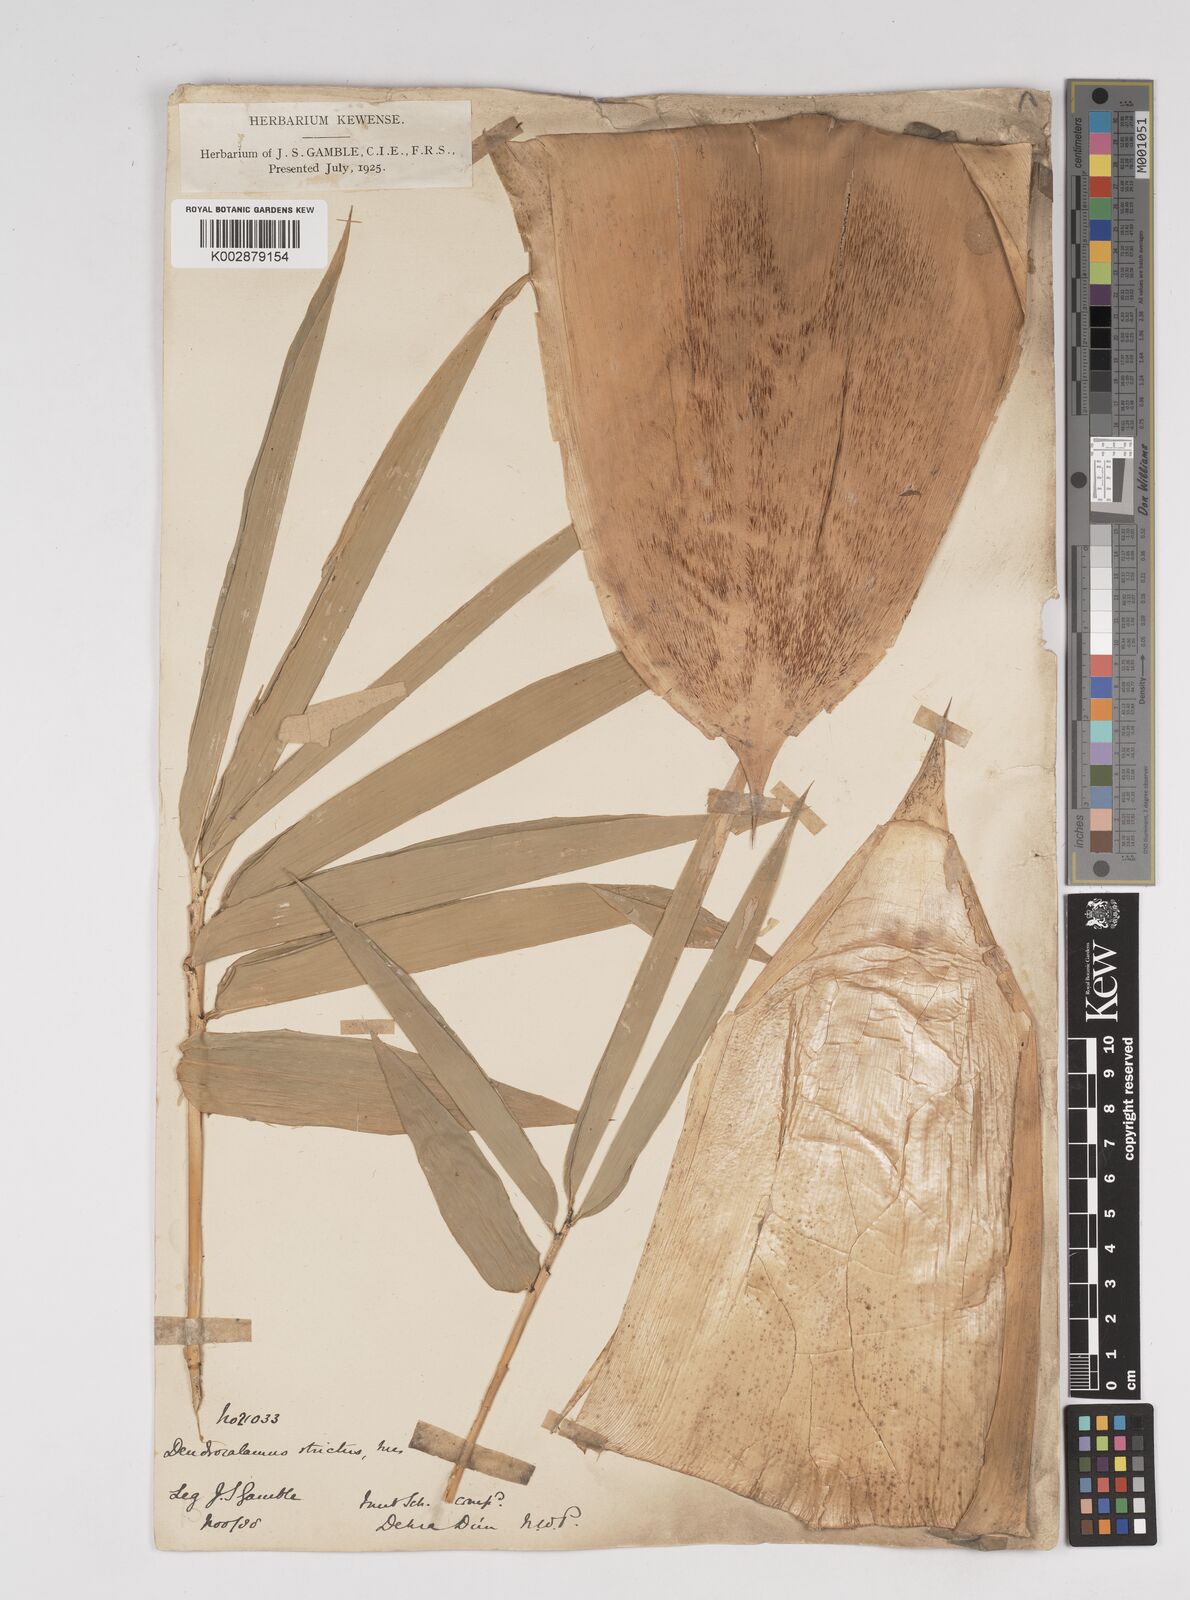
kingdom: Plantae
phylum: Tracheophyta
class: Liliopsida
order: Poales
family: Poaceae
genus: Dendrocalamus
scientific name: Dendrocalamus strictus
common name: Male bamboo
